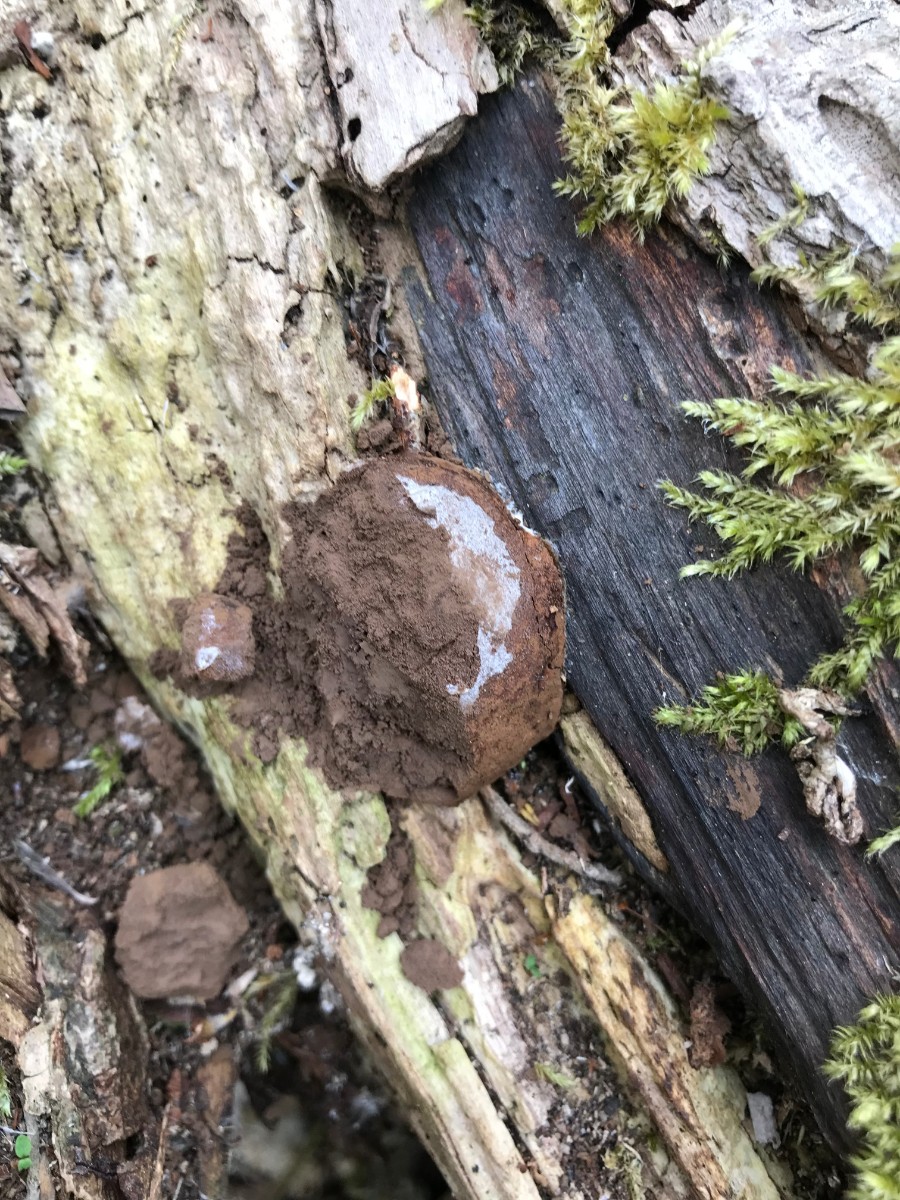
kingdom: Protozoa
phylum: Mycetozoa
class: Myxomycetes
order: Cribrariales
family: Tubiferaceae
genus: Reticularia
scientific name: Reticularia lycoperdon
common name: skinnende støvpude
